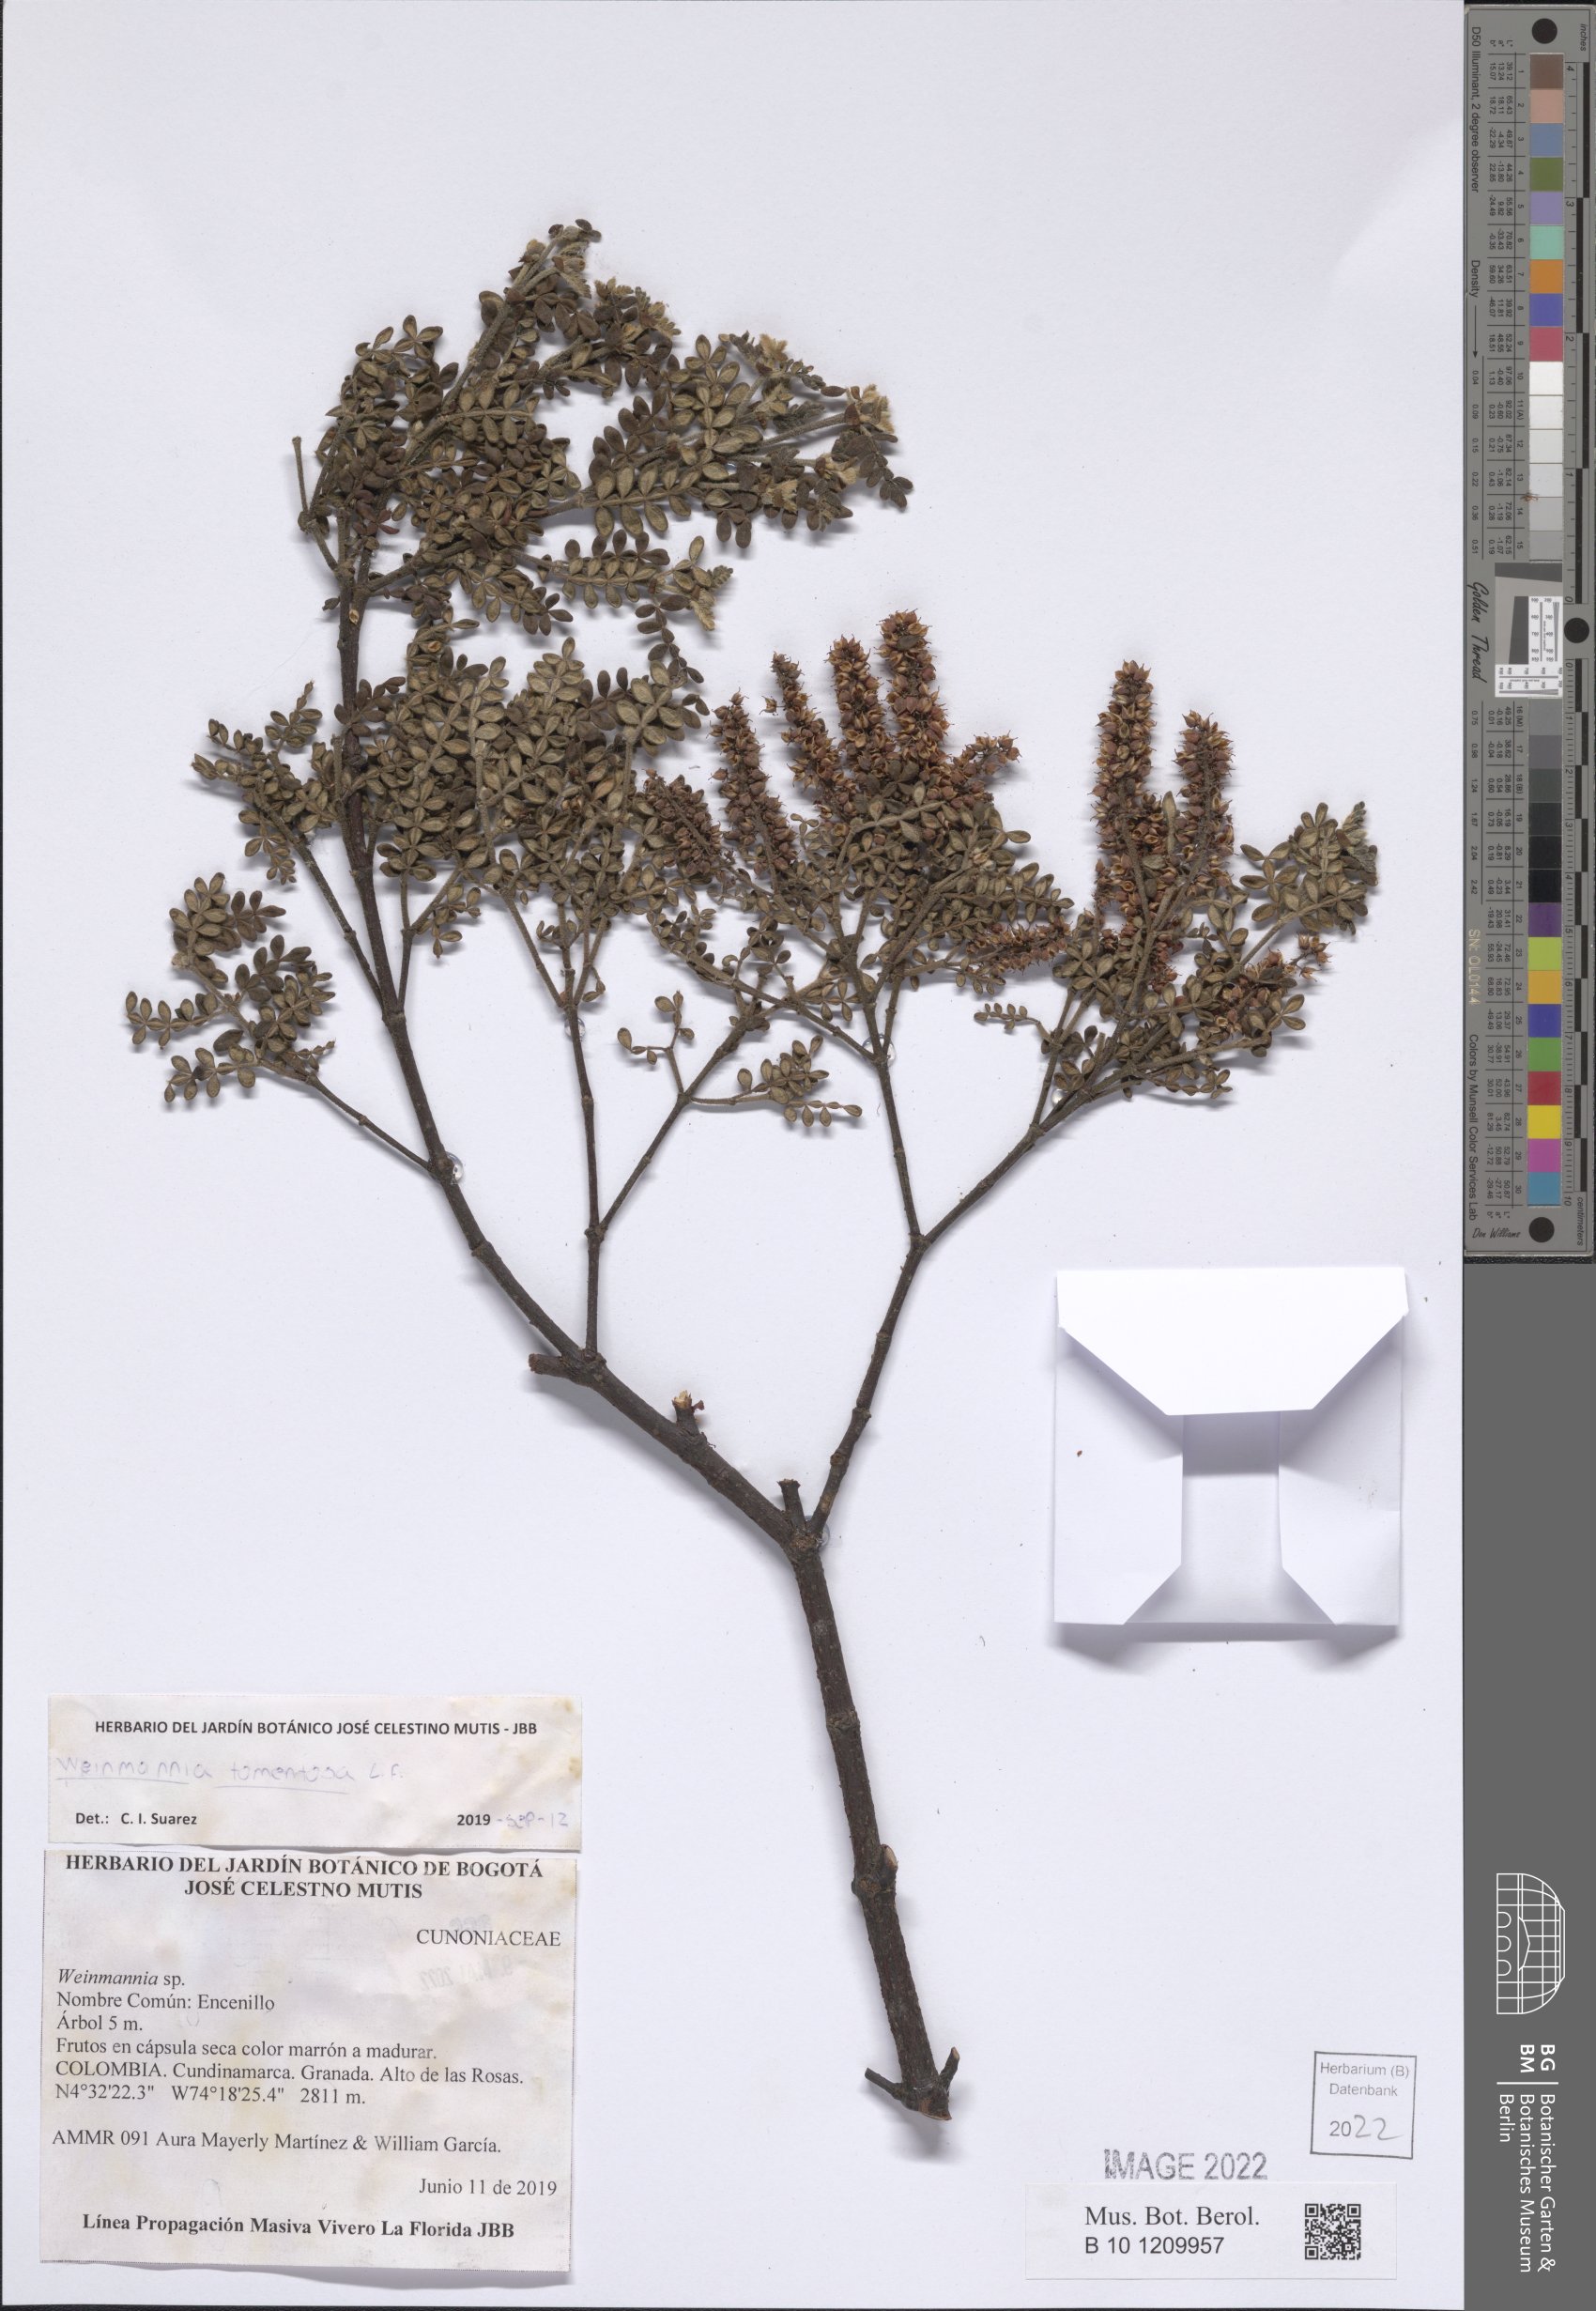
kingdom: Plantae
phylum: Tracheophyta
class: Magnoliopsida
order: Oxalidales
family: Cunoniaceae
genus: Weinmannia
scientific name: Weinmannia tomentosa
